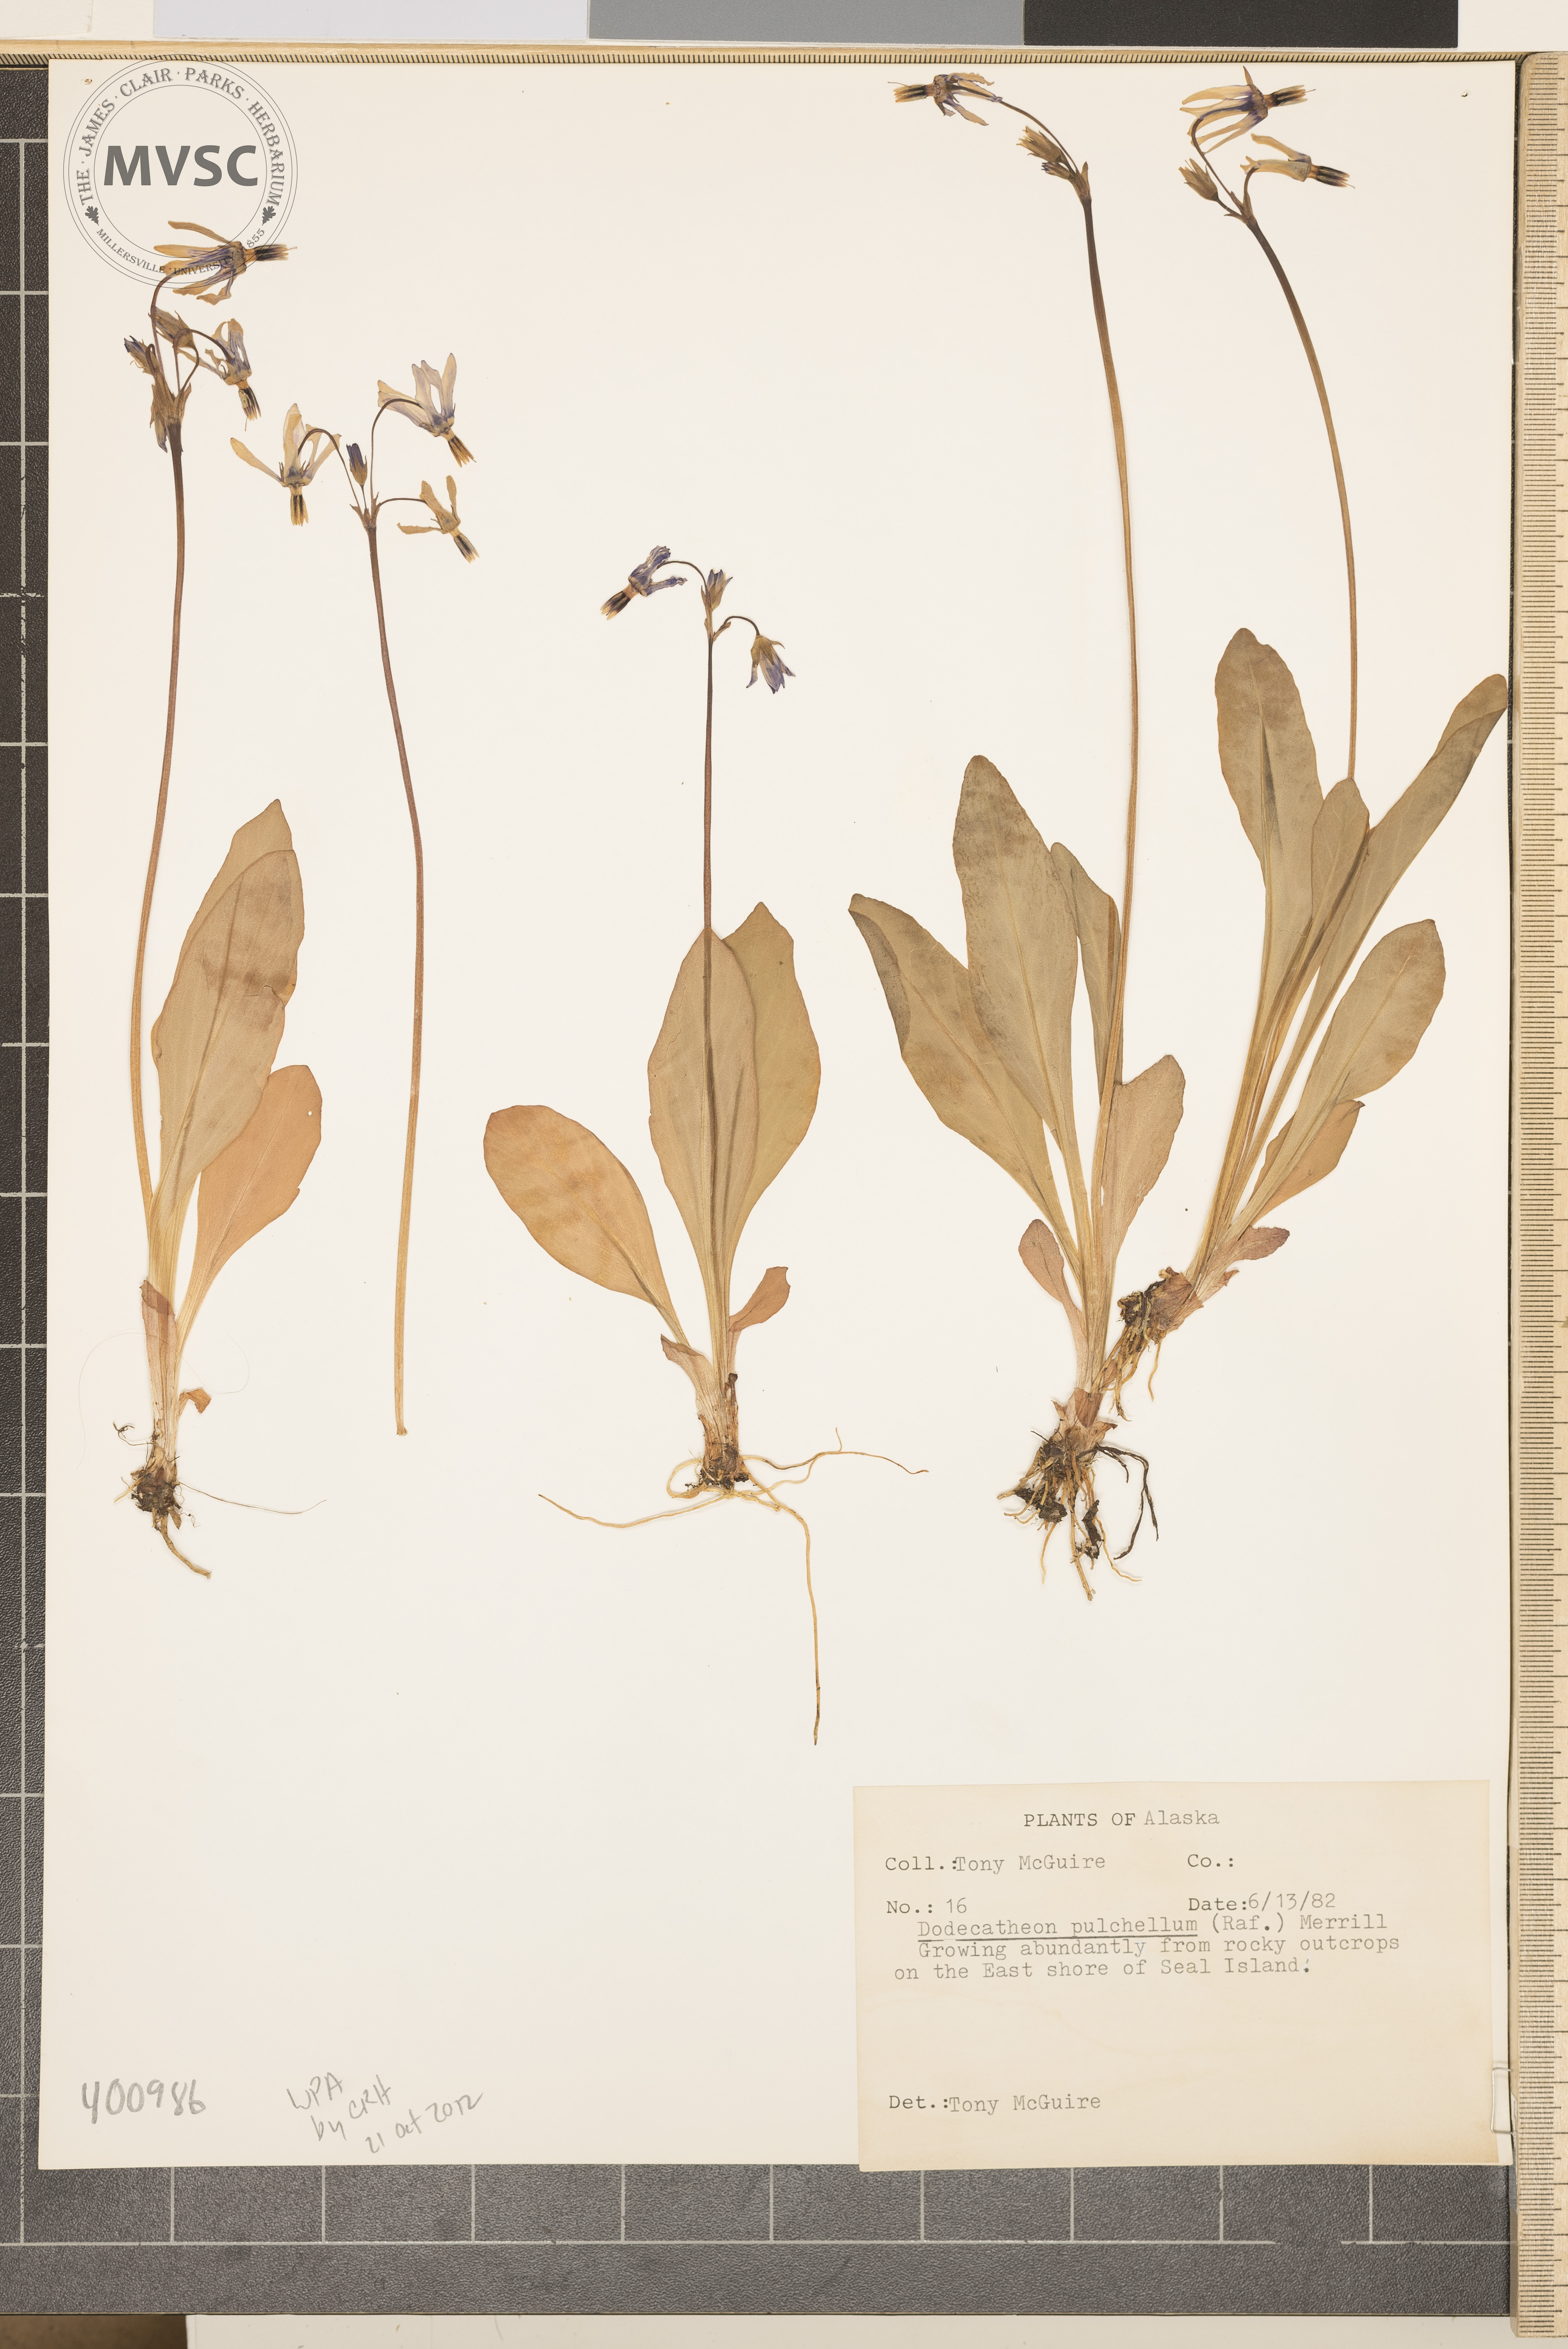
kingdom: Plantae
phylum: Tracheophyta
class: Magnoliopsida
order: Ericales
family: Primulaceae
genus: Dodecatheon
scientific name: Dodecatheon pulchellum
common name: darkthroat shootingstar
